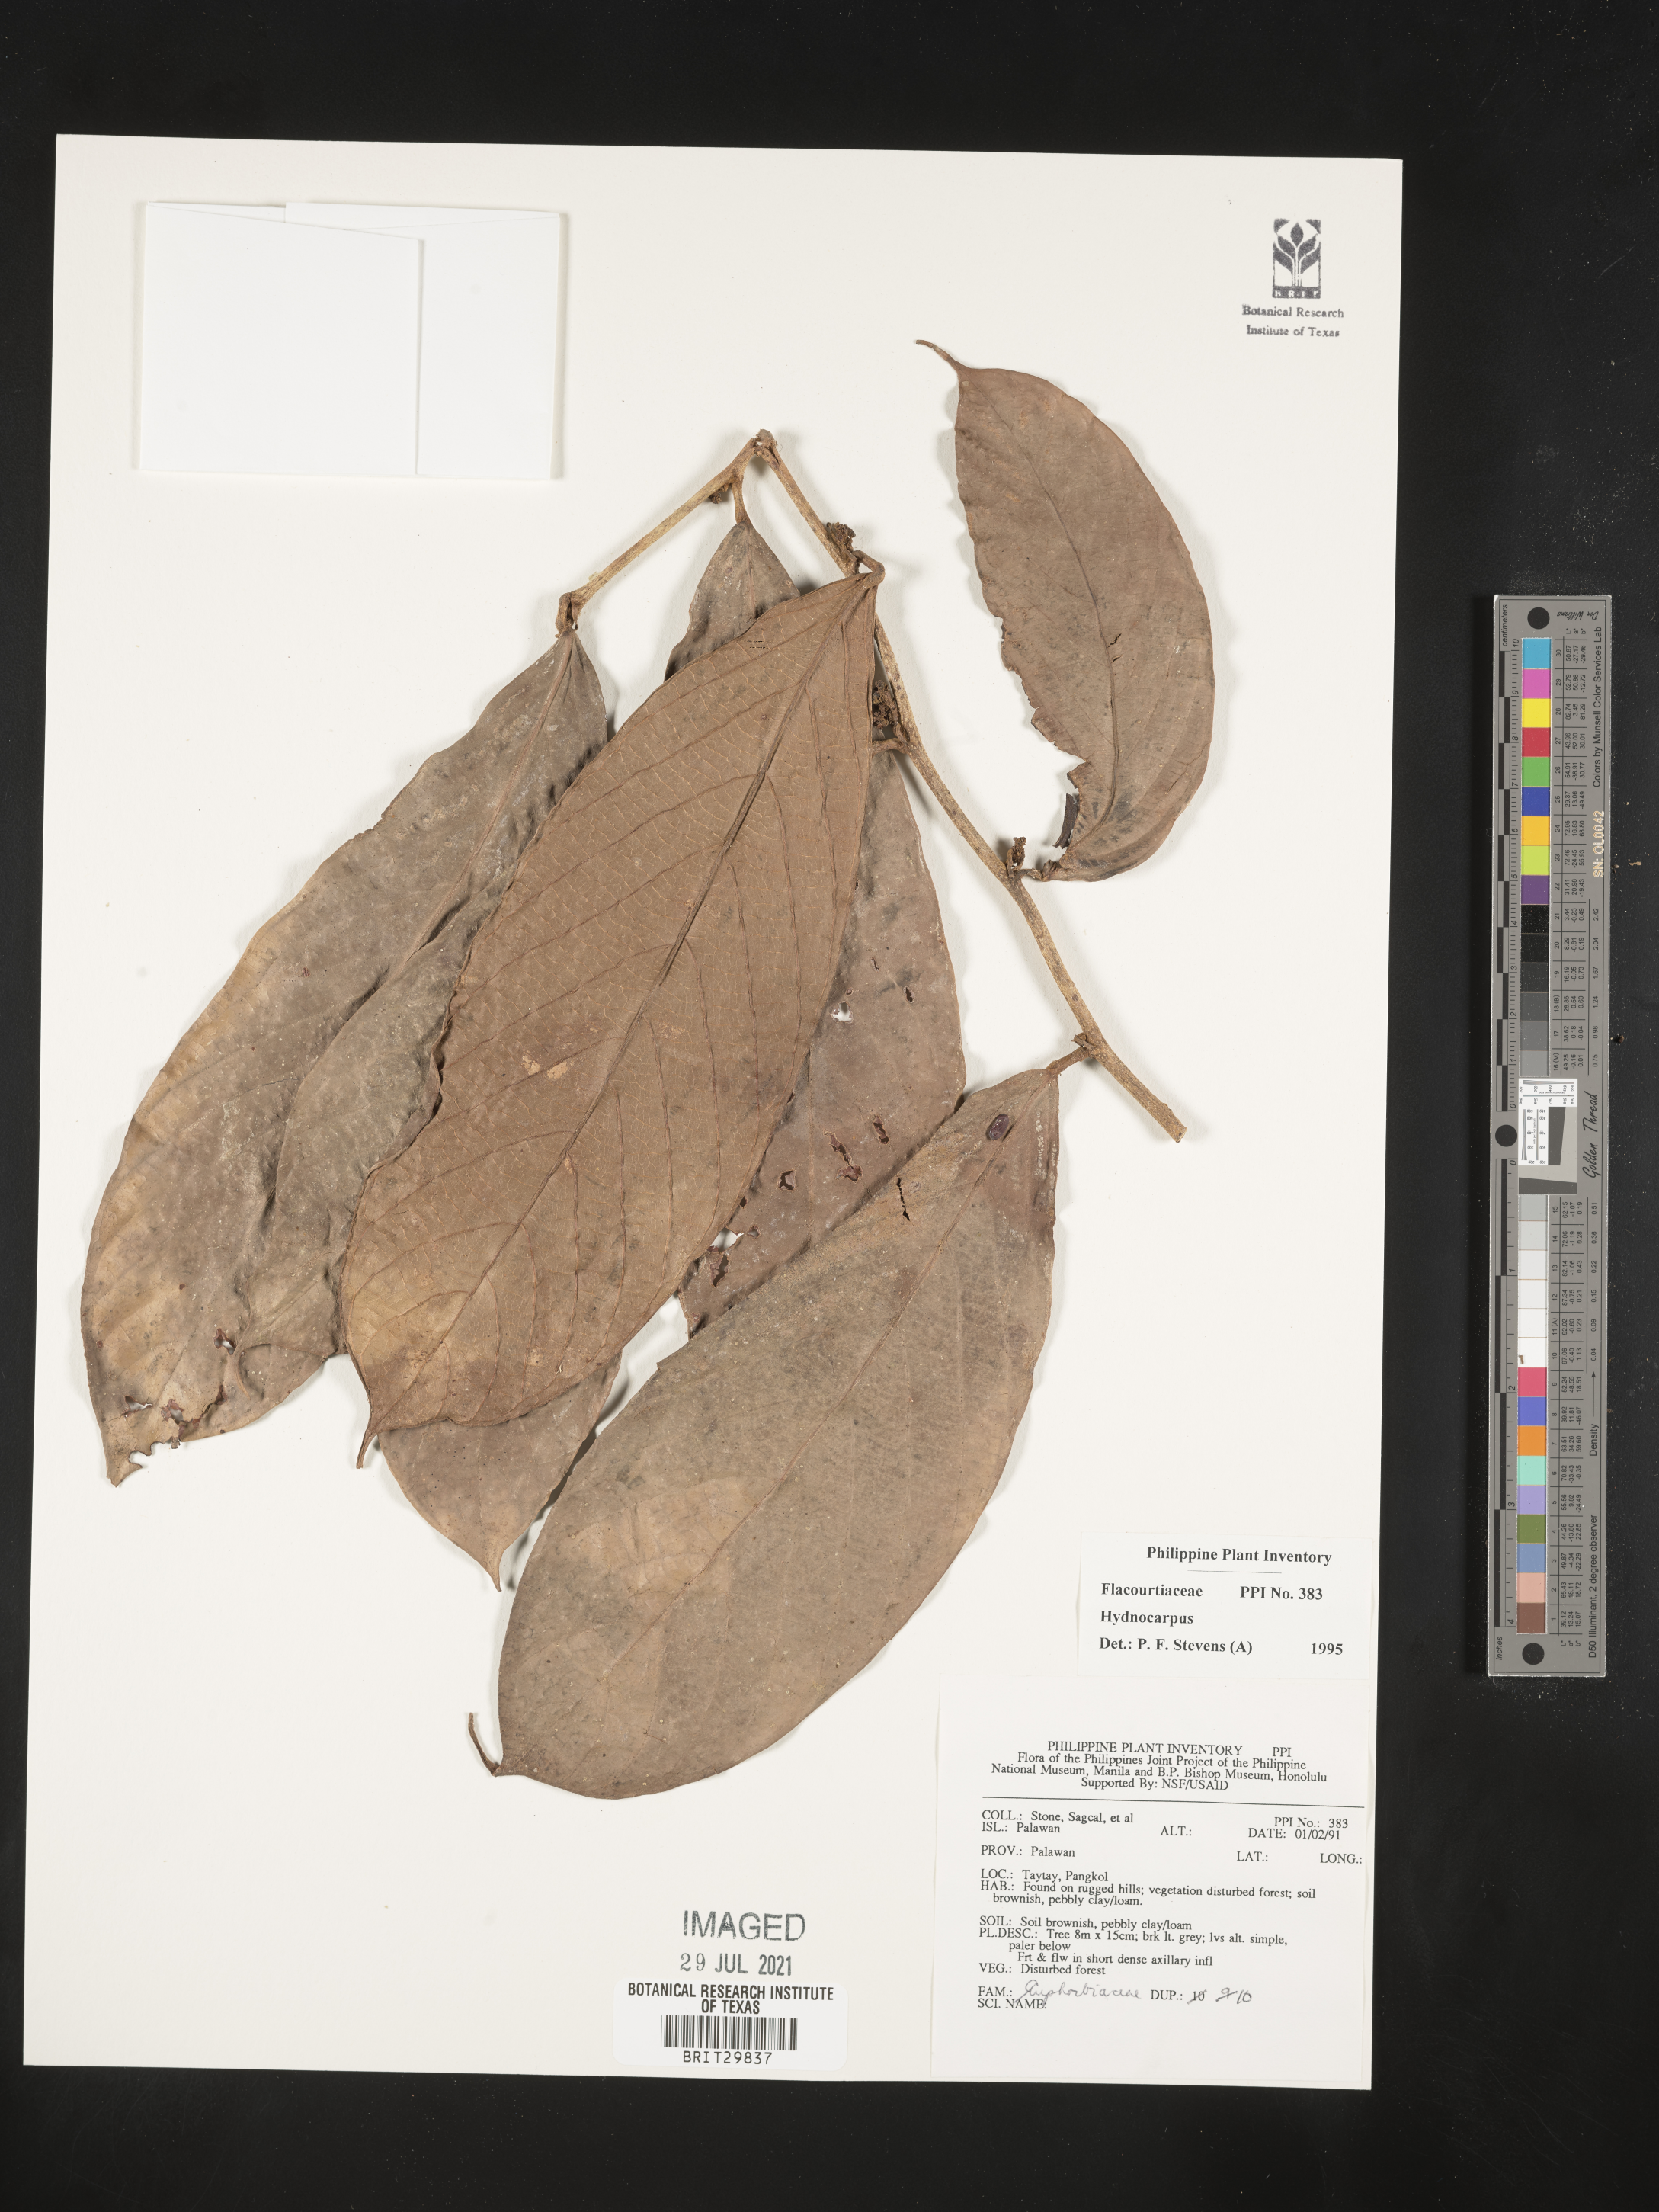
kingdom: Plantae
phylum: Tracheophyta
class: Magnoliopsida
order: Malpighiales
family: Achariaceae
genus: Hydnocarpus
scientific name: Hydnocarpus
